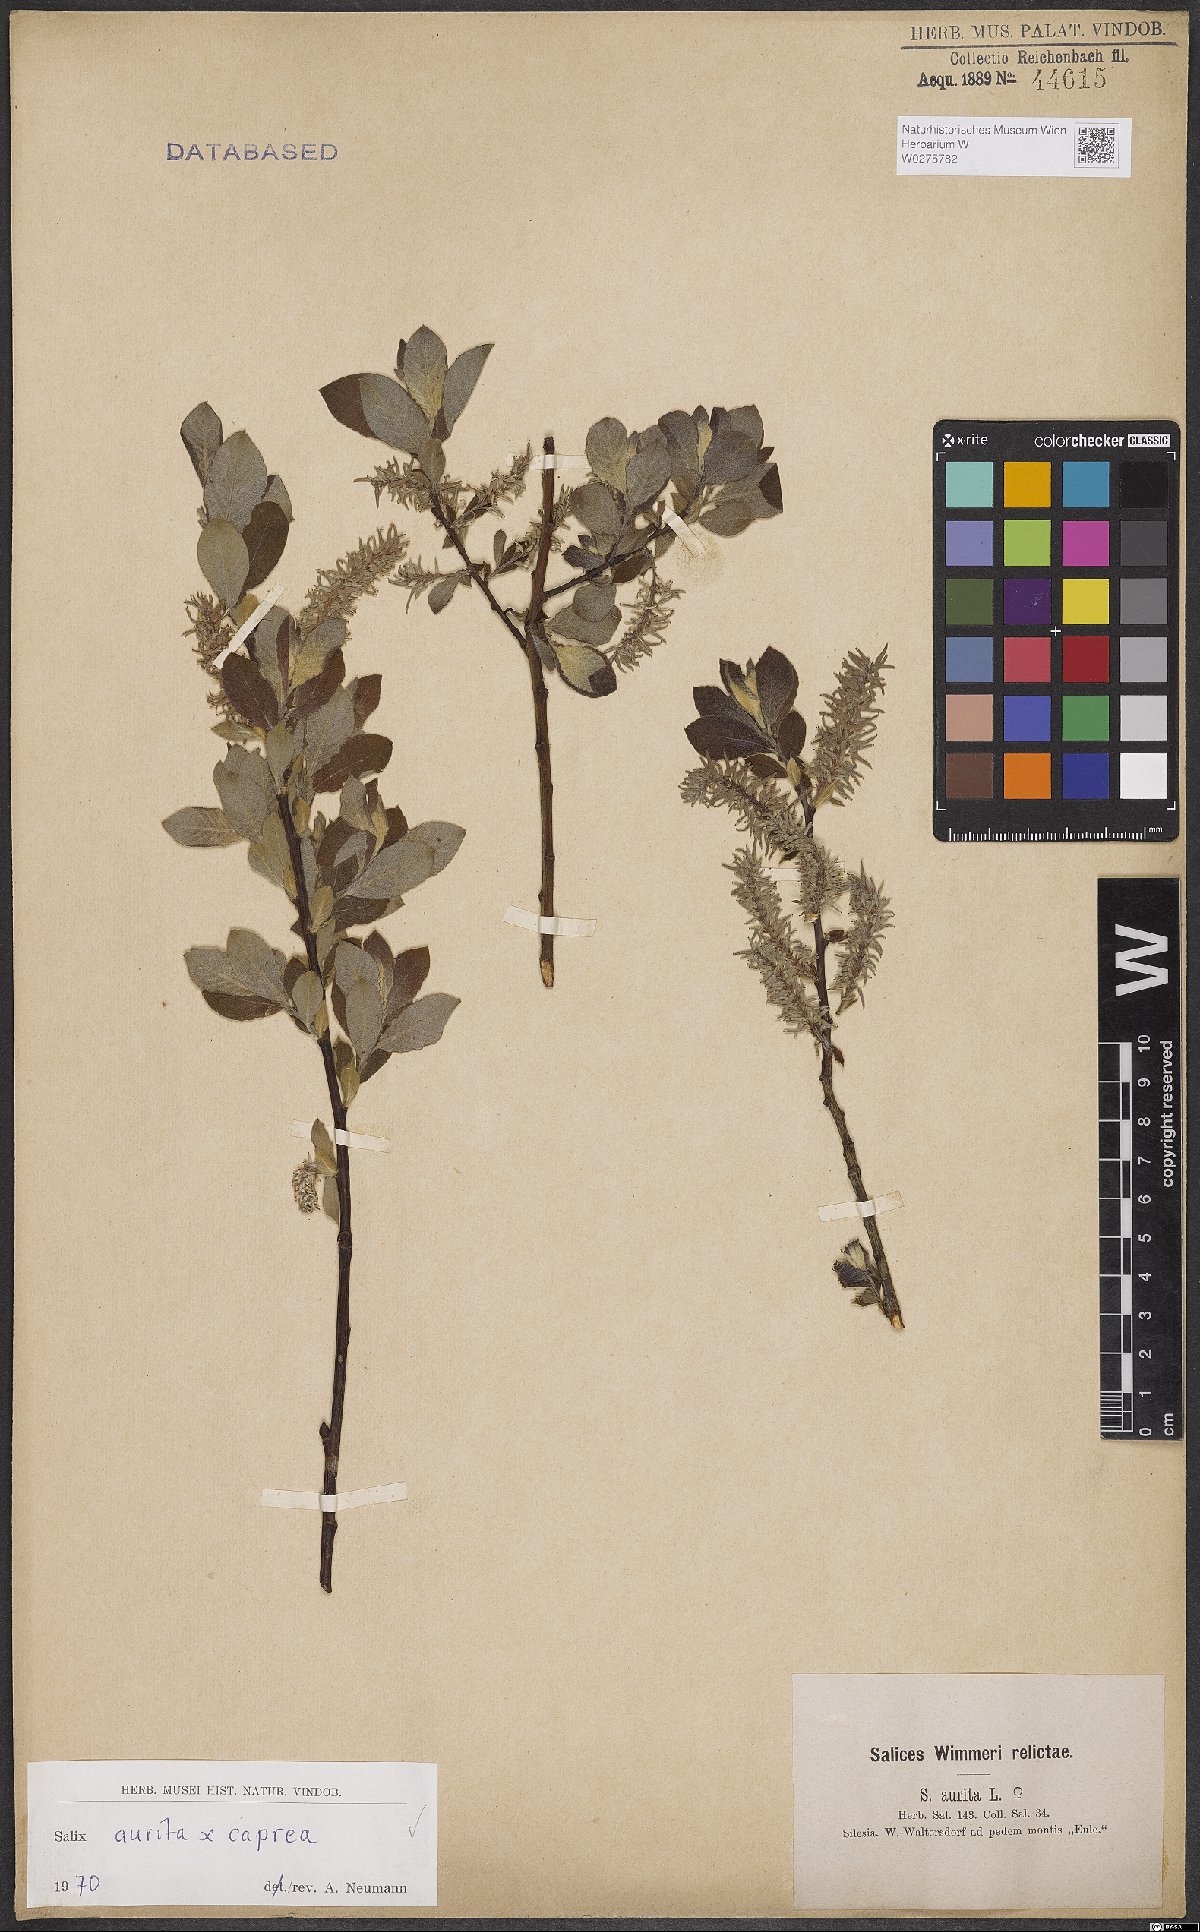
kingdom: Plantae
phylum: Tracheophyta
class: Magnoliopsida
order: Malpighiales
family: Salicaceae
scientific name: Salicaceae
